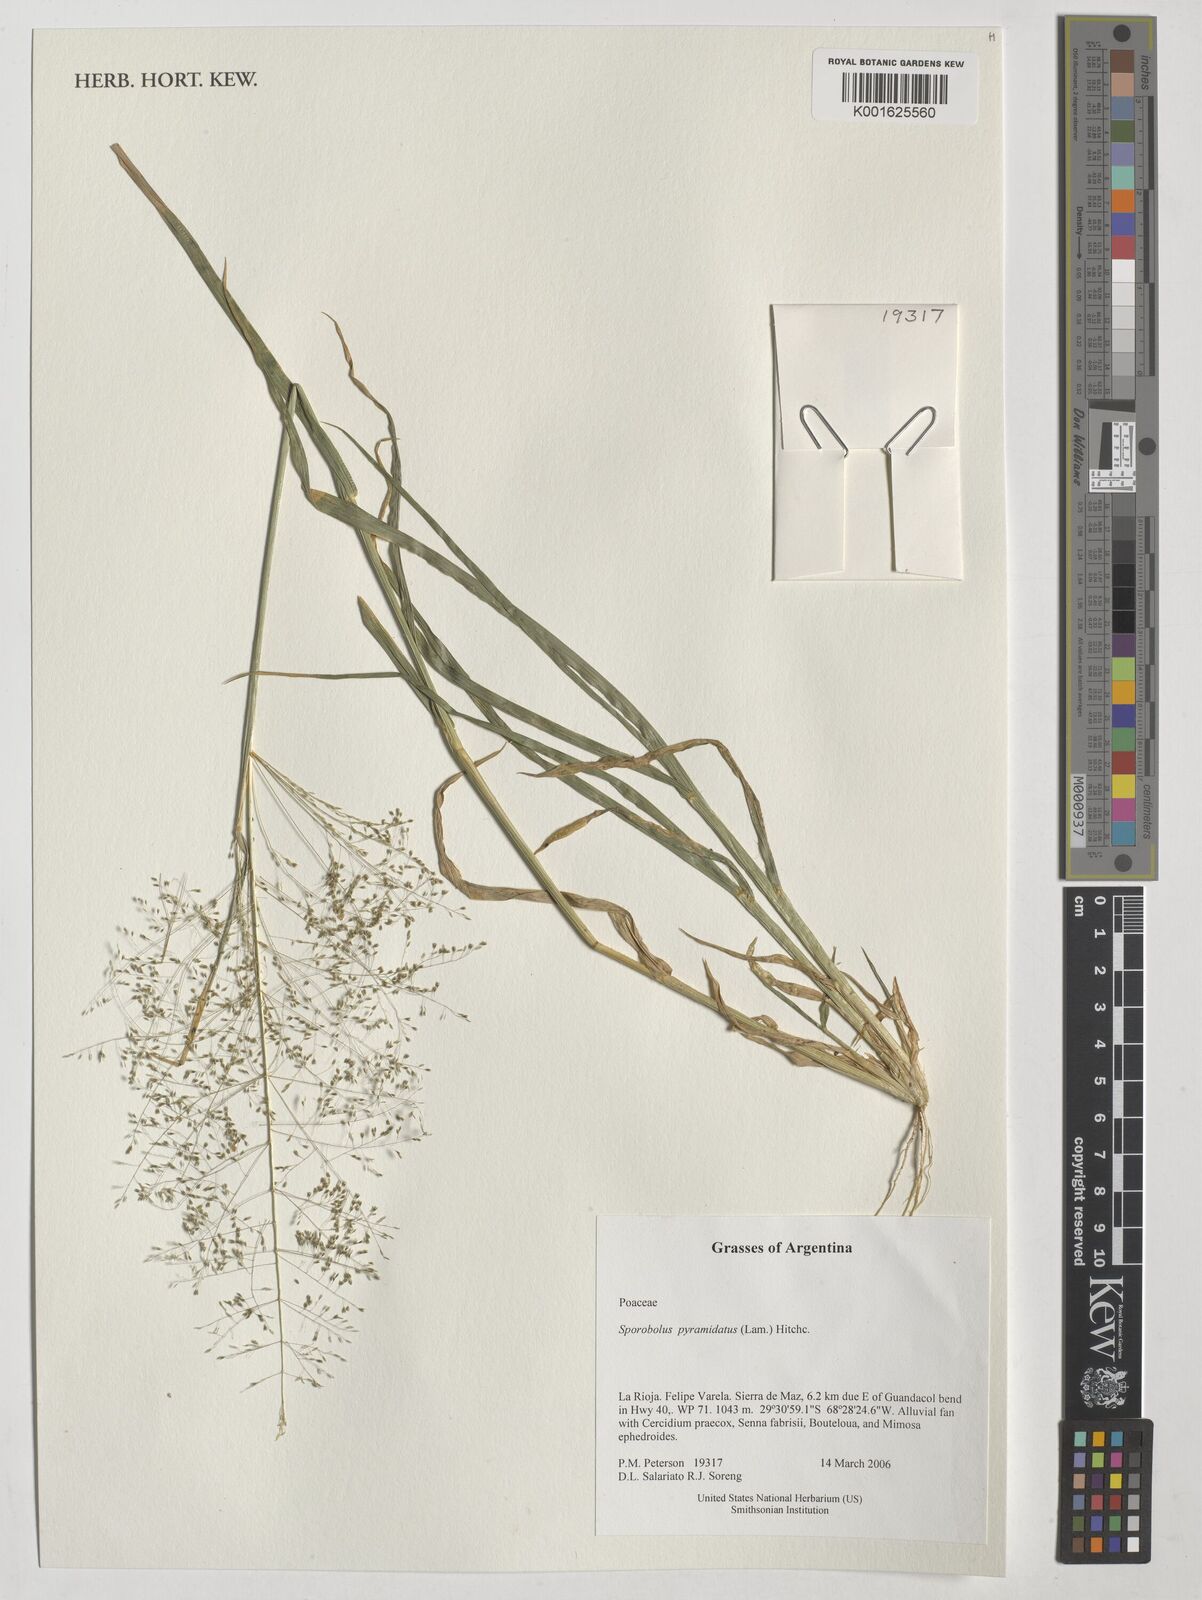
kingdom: Plantae
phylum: Tracheophyta
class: Liliopsida
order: Poales
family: Poaceae
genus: Sporobolus
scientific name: Sporobolus pyramidatus
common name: Whorled dropseed
